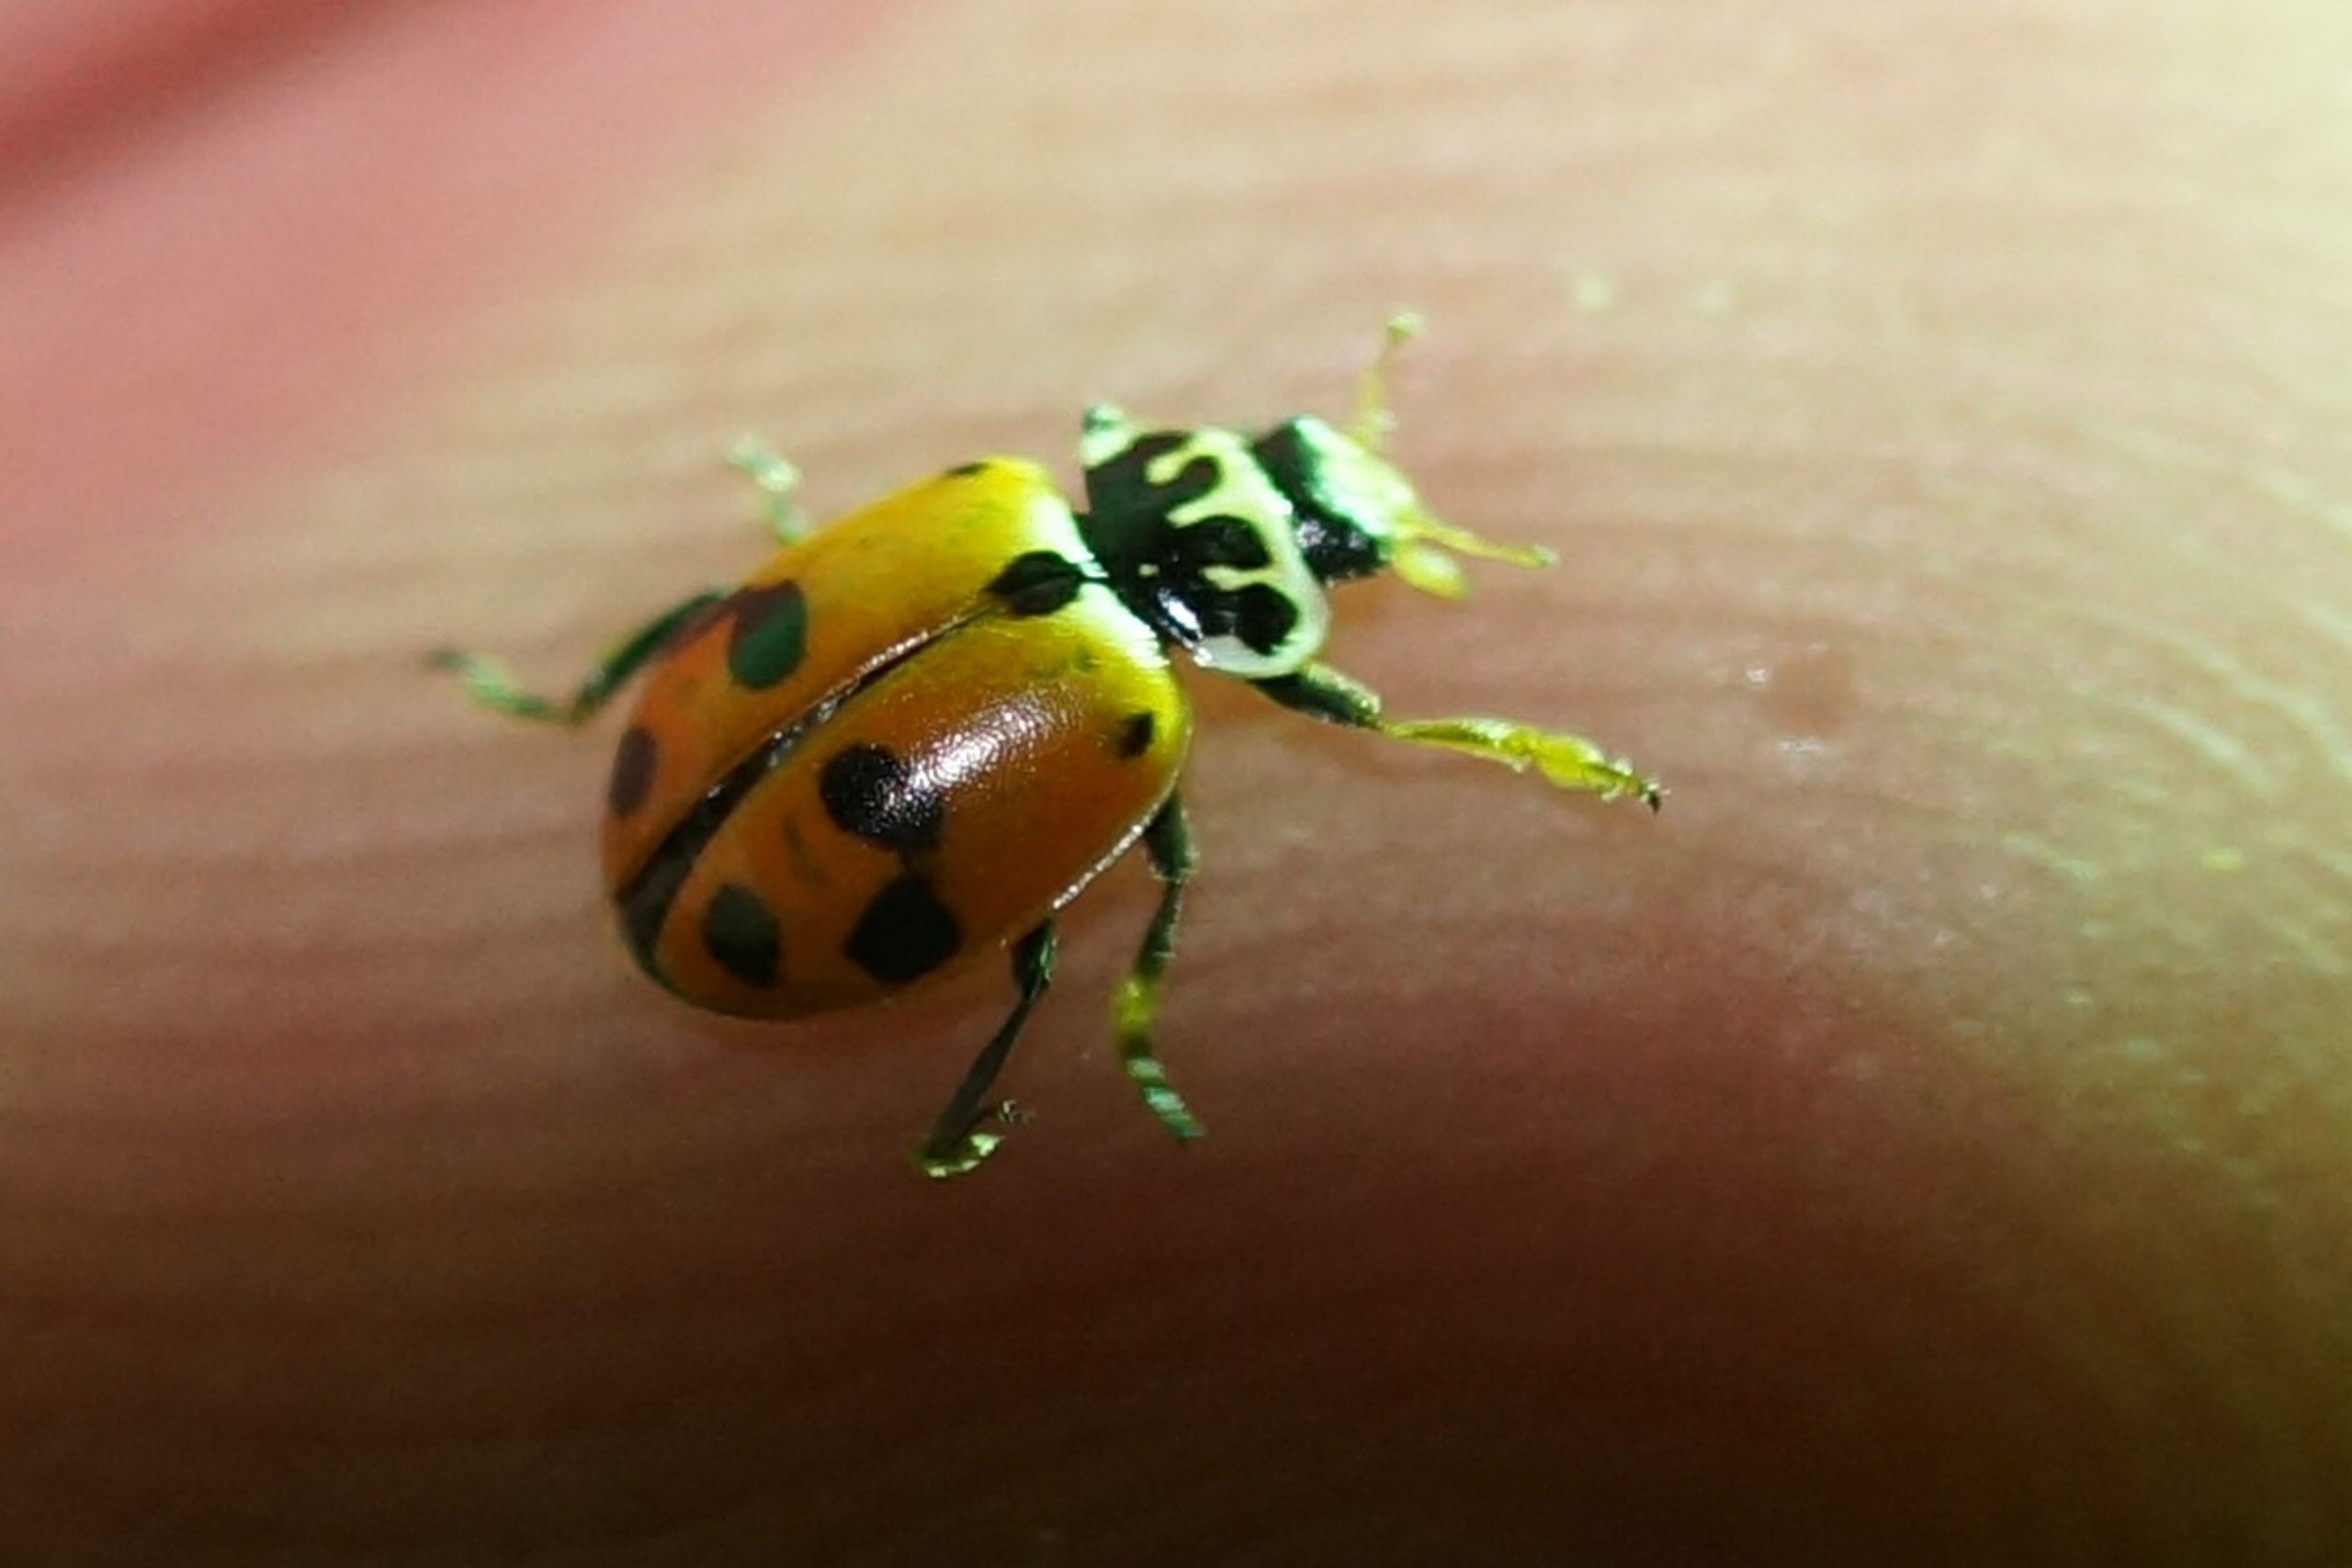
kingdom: Animalia
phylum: Arthropoda
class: Insecta
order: Coleoptera
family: Coccinellidae
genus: Hippodamia
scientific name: Hippodamia variegata
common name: Adonis' mariehøne
